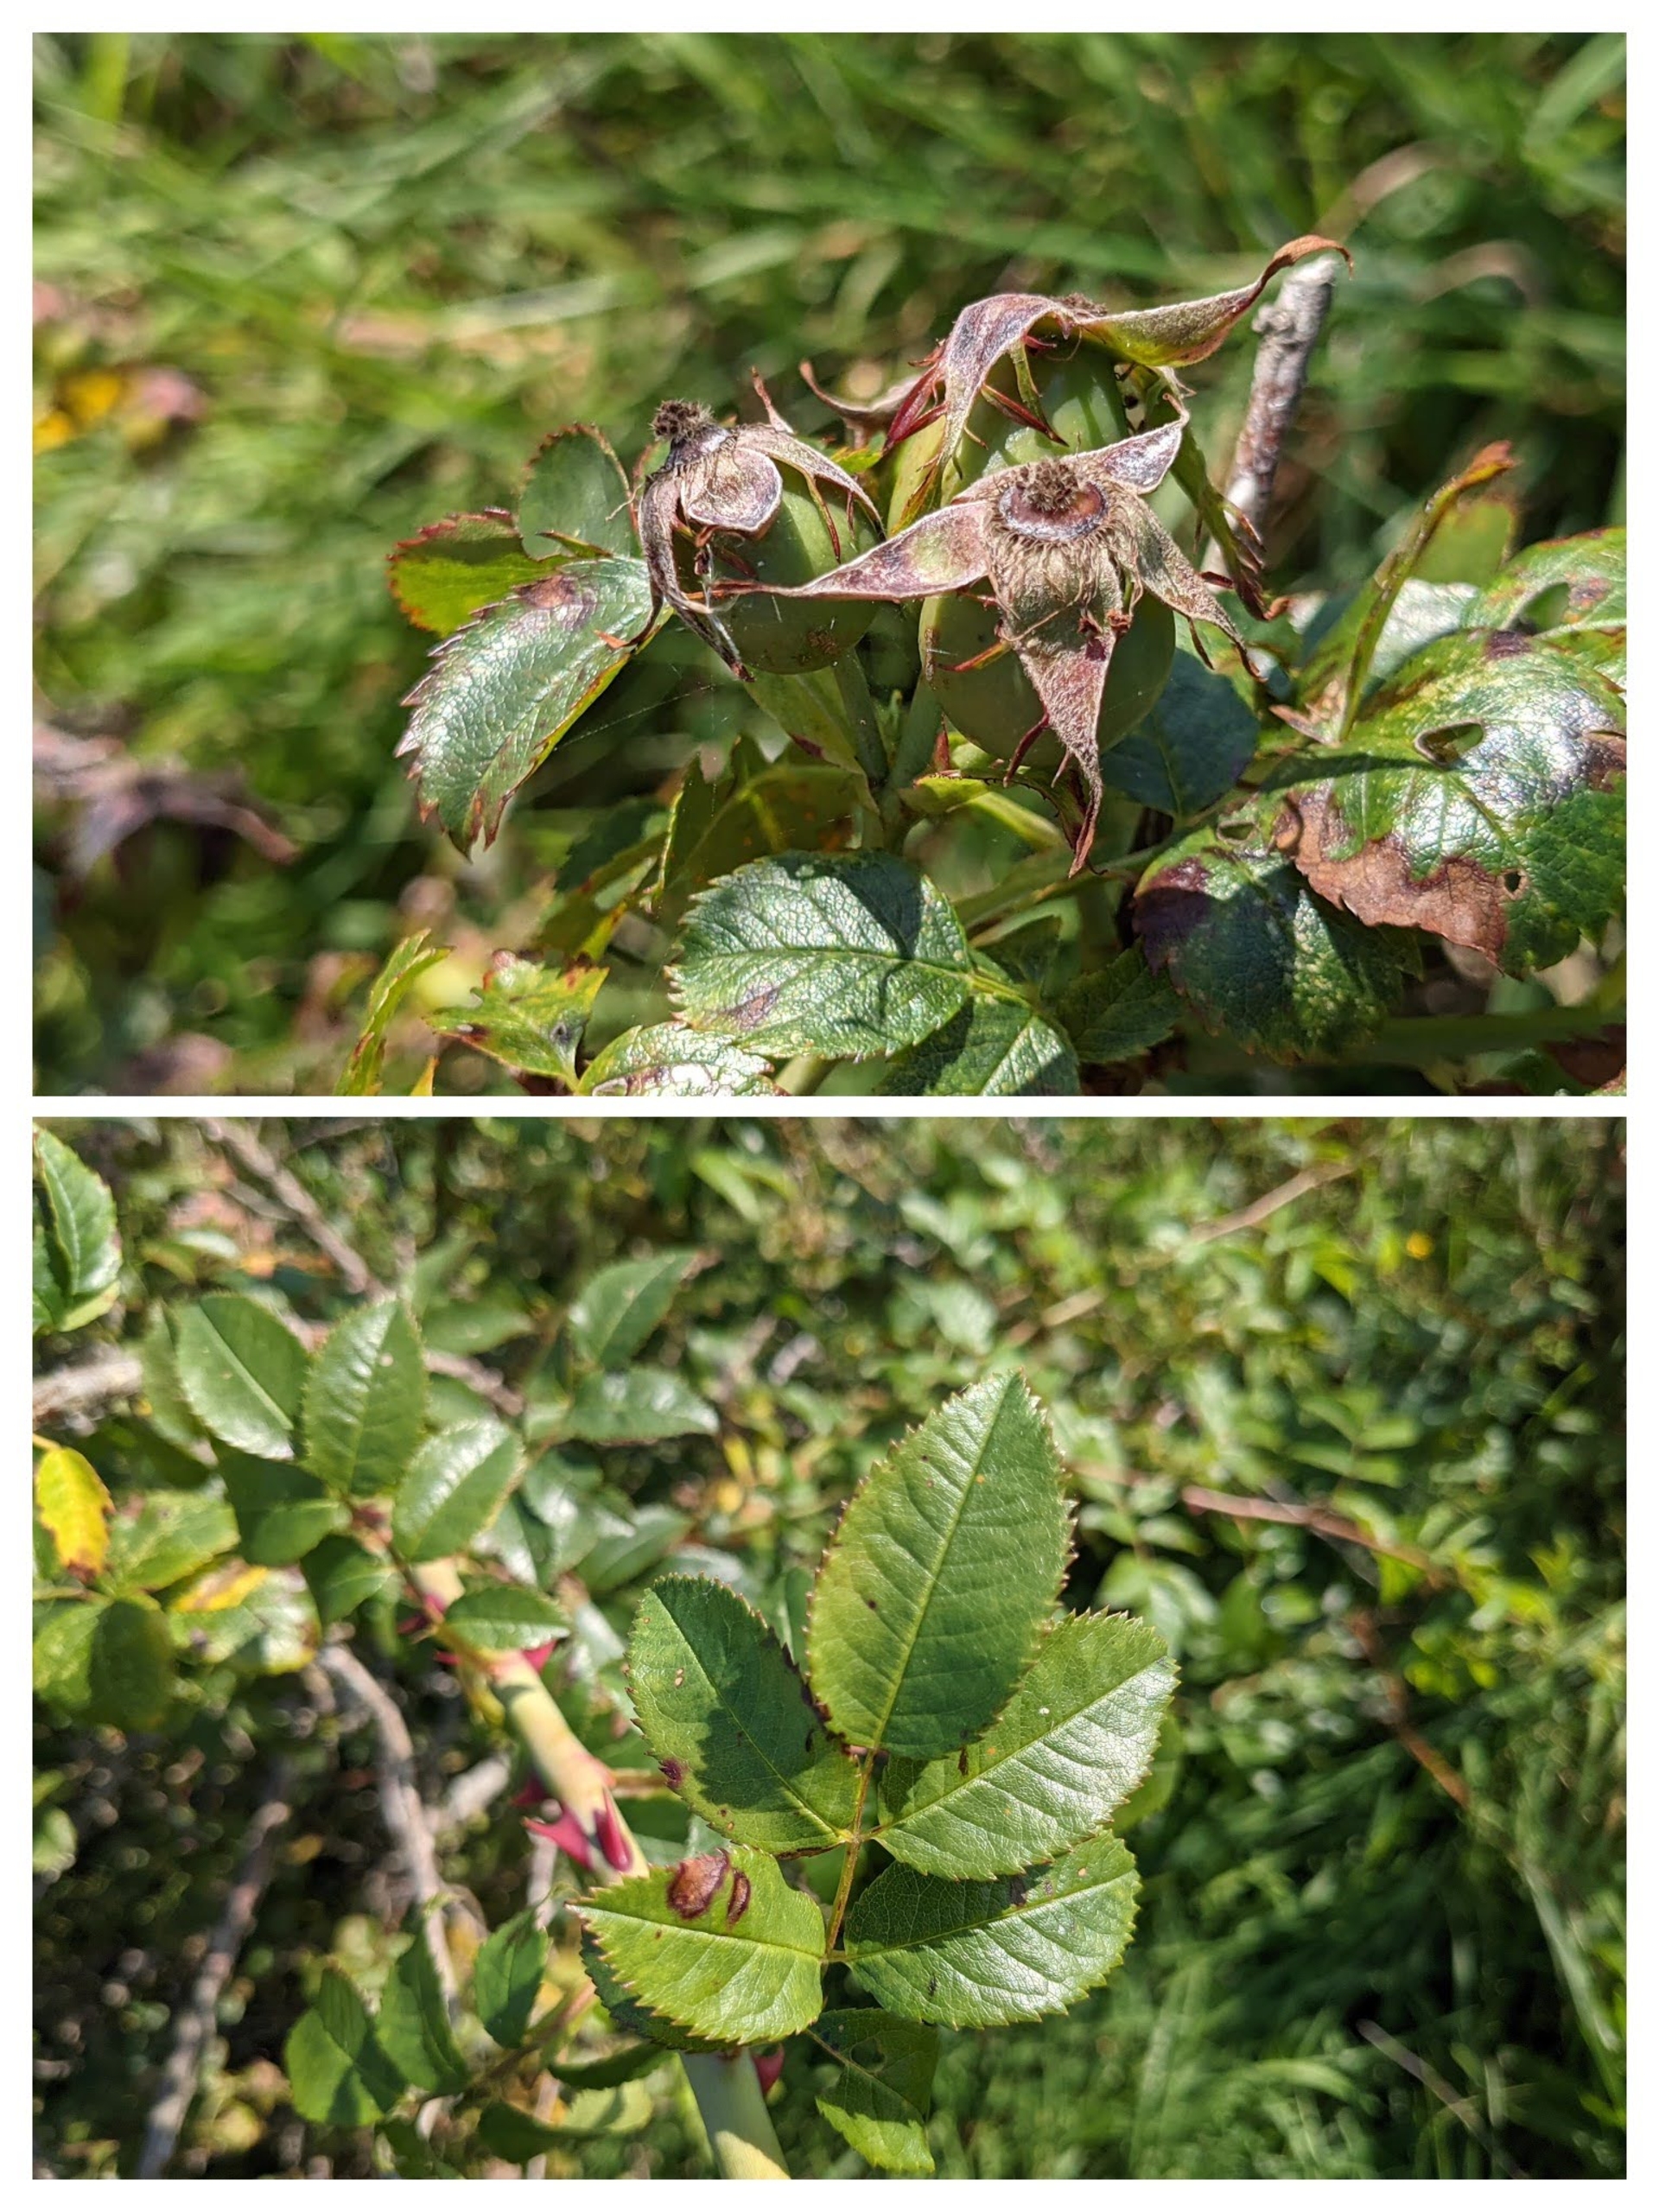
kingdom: Plantae
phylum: Tracheophyta
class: Magnoliopsida
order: Rosales
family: Rosaceae
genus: Rosa
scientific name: Rosa dumalis
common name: Blågrøn rose (underart)
